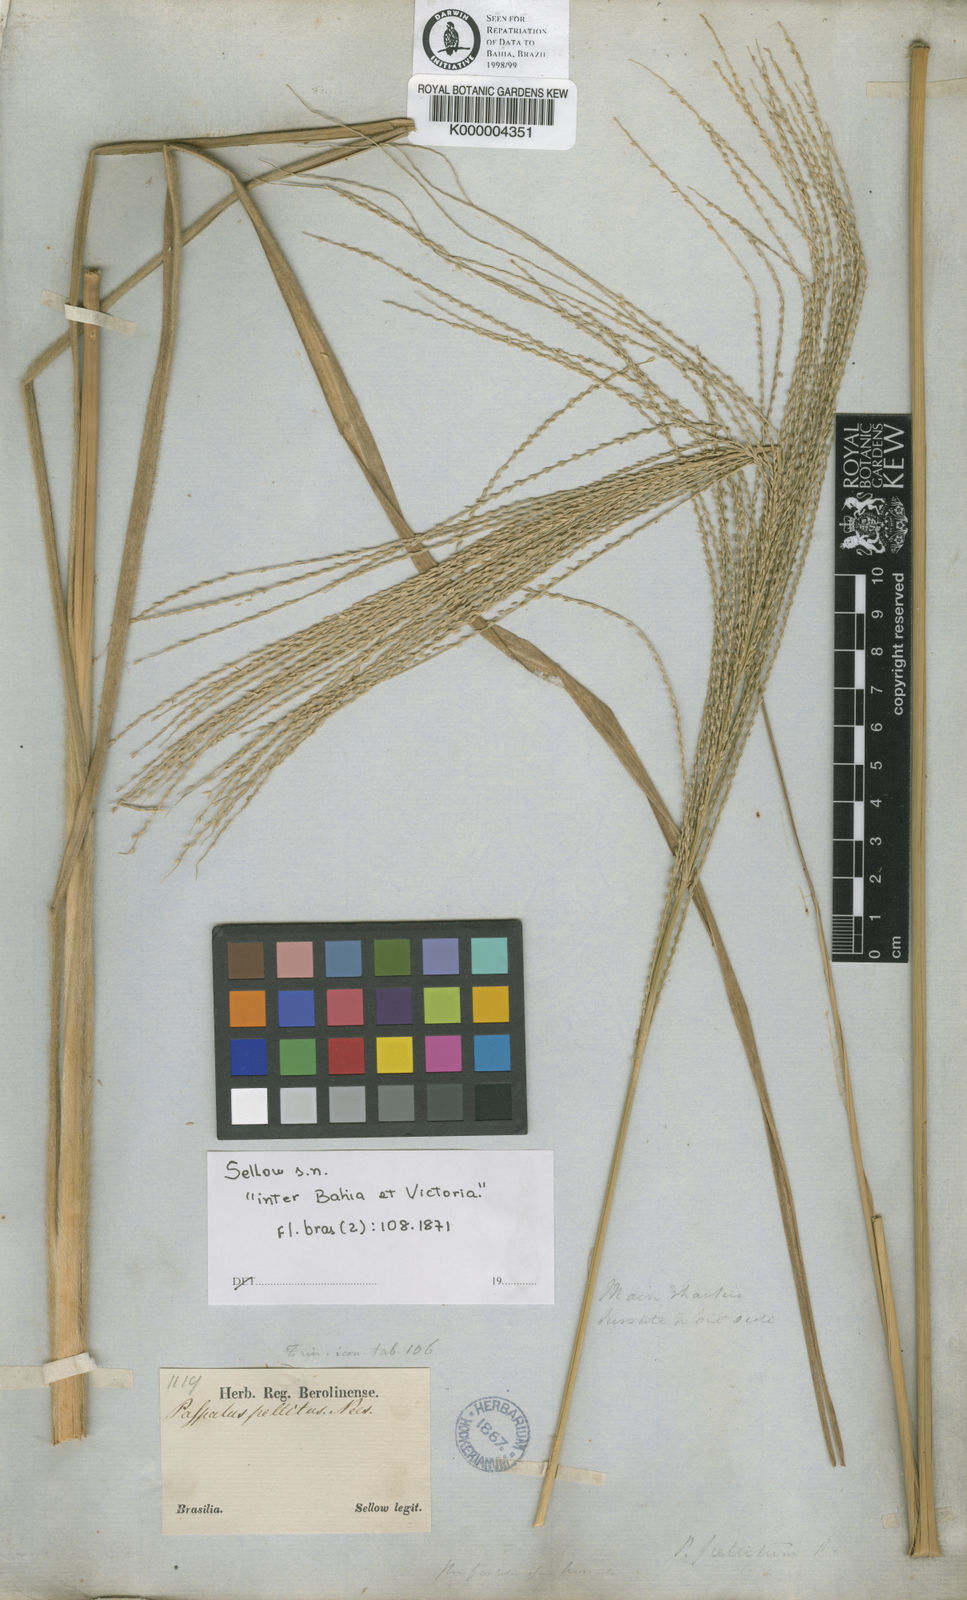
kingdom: Plantae
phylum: Tracheophyta
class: Liliopsida
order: Poales
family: Poaceae
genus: Axonopus
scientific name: Axonopus siccus
